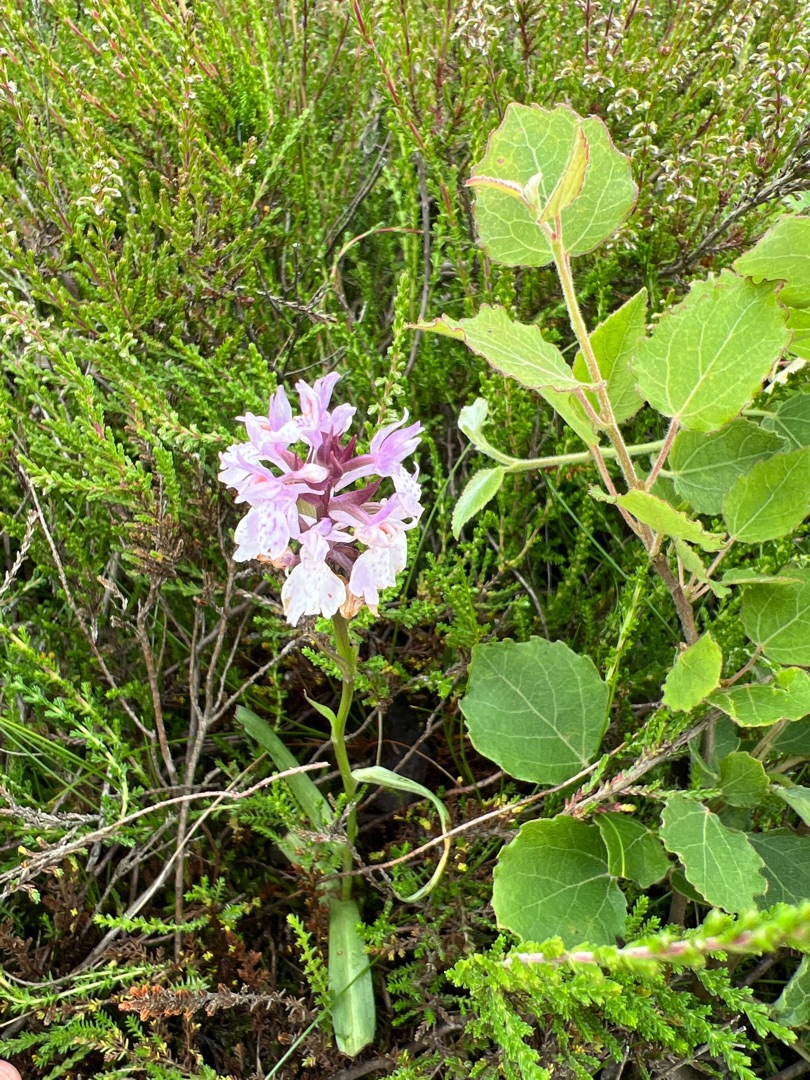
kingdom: Plantae
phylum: Tracheophyta
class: Liliopsida
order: Asparagales
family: Orchidaceae
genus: Dactylorhiza
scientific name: Dactylorhiza maculata
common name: Plettet gøgeurt
